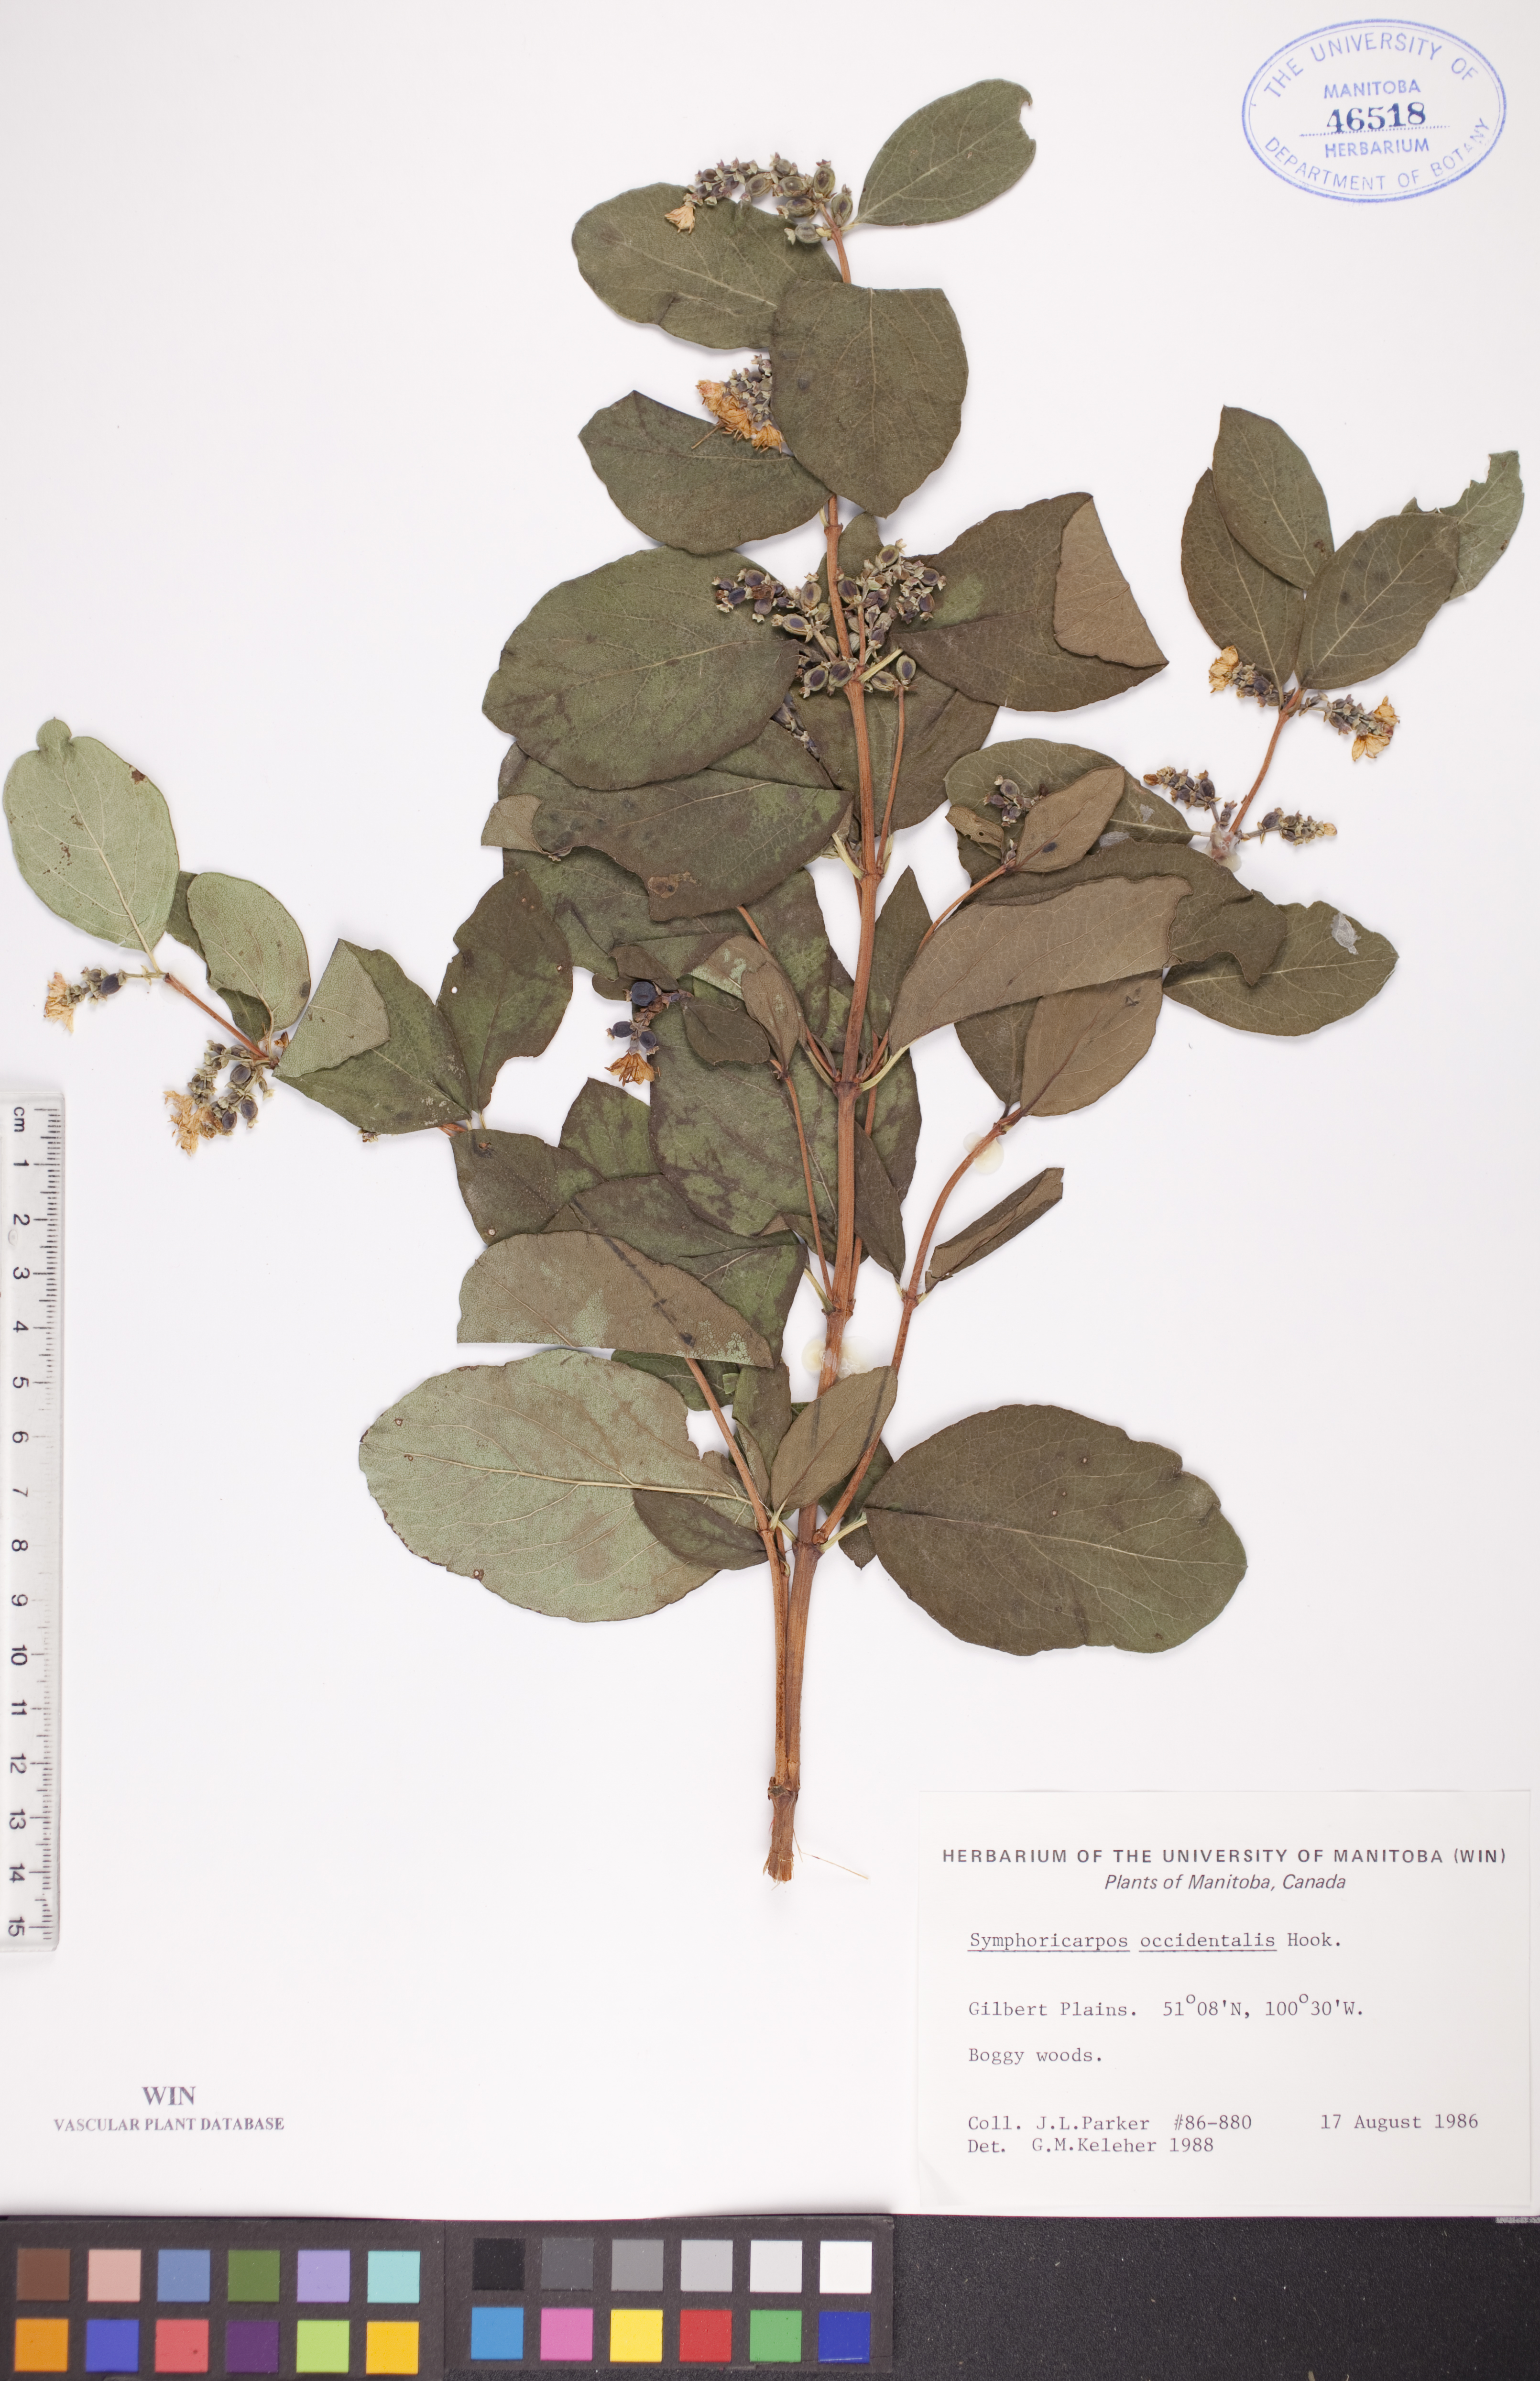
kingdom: Plantae
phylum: Tracheophyta
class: Magnoliopsida
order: Dipsacales
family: Caprifoliaceae
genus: Symphoricarpos
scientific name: Symphoricarpos occidentalis
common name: Wolfberry
